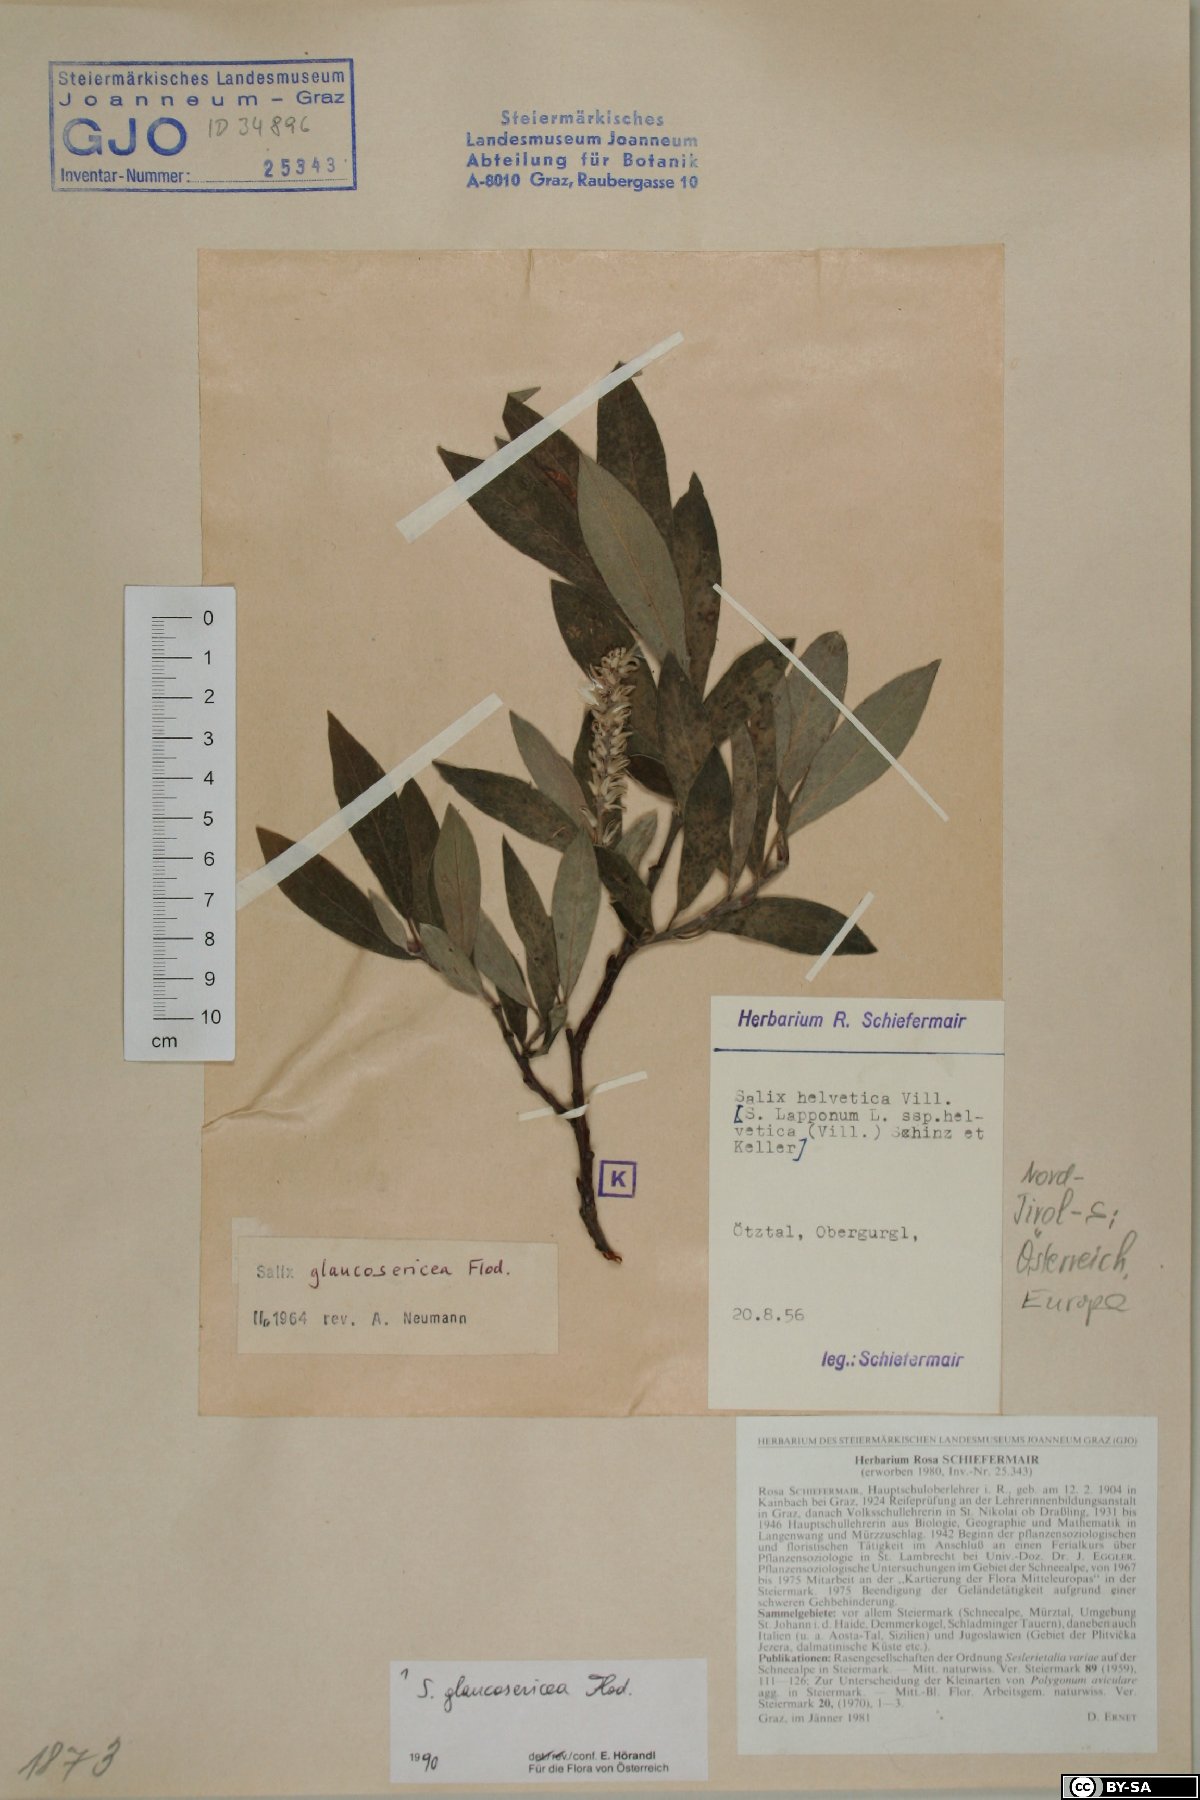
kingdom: Plantae
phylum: Tracheophyta
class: Magnoliopsida
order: Malpighiales
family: Salicaceae
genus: Salix
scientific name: Salix glaucosericea
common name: Alpine gray willow
